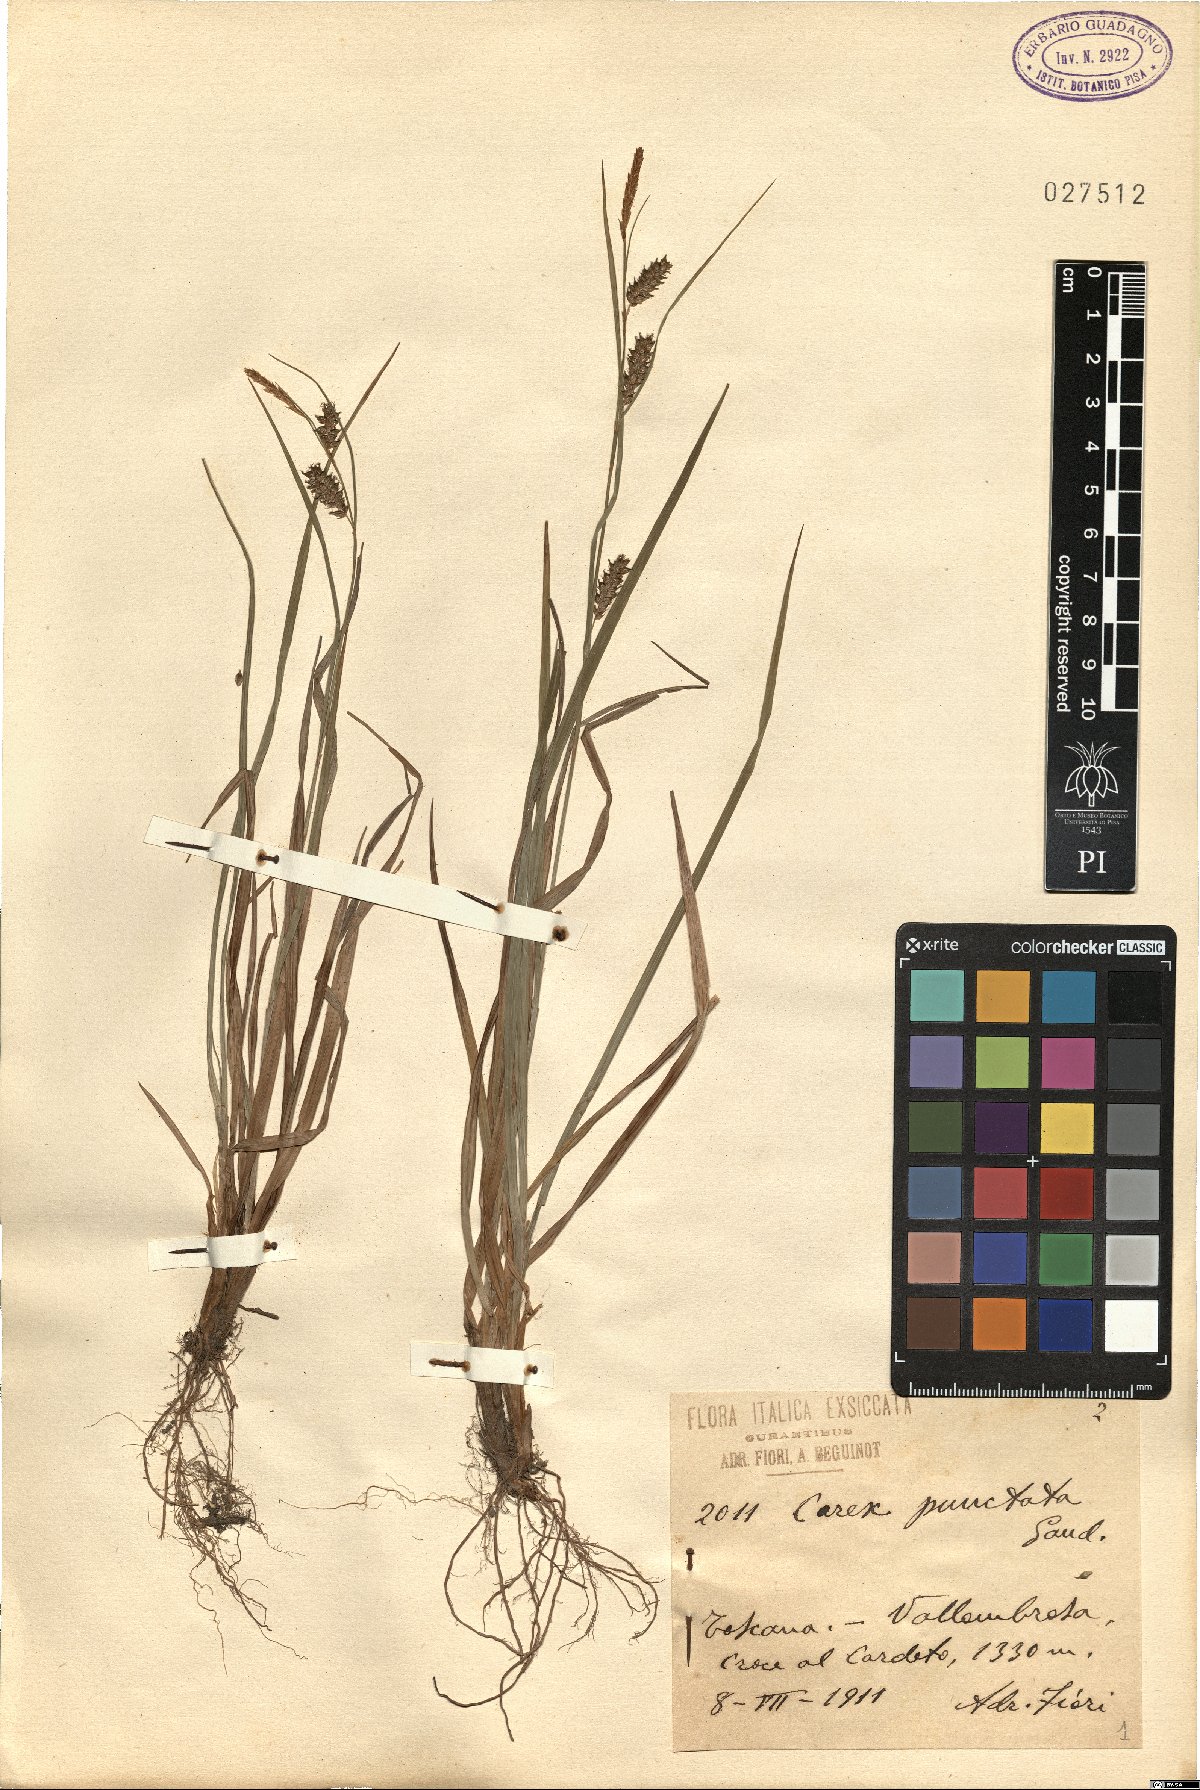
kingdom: Plantae
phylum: Tracheophyta
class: Liliopsida
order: Poales
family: Cyperaceae
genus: Carex
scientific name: Carex punctata
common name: Dotted sedge
